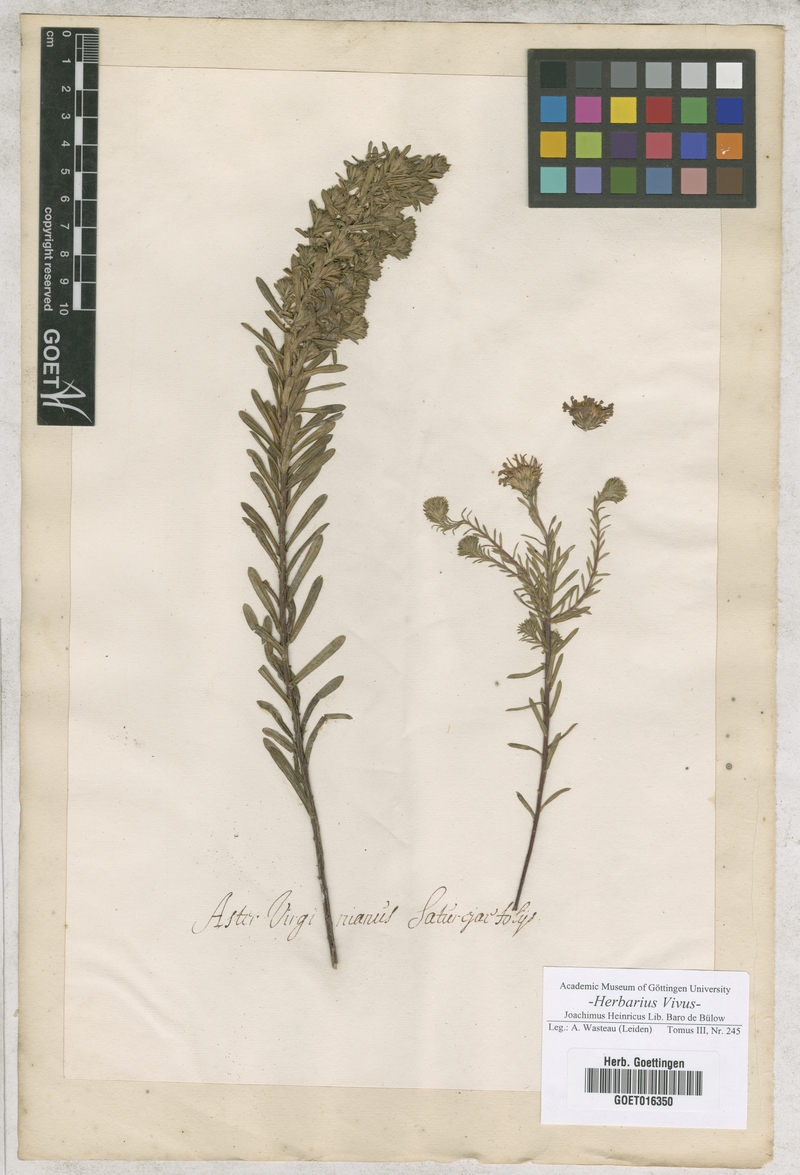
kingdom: Plantae
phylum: Tracheophyta
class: Magnoliopsida
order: Asterales
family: Asteraceae
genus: Aster
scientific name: Aster
